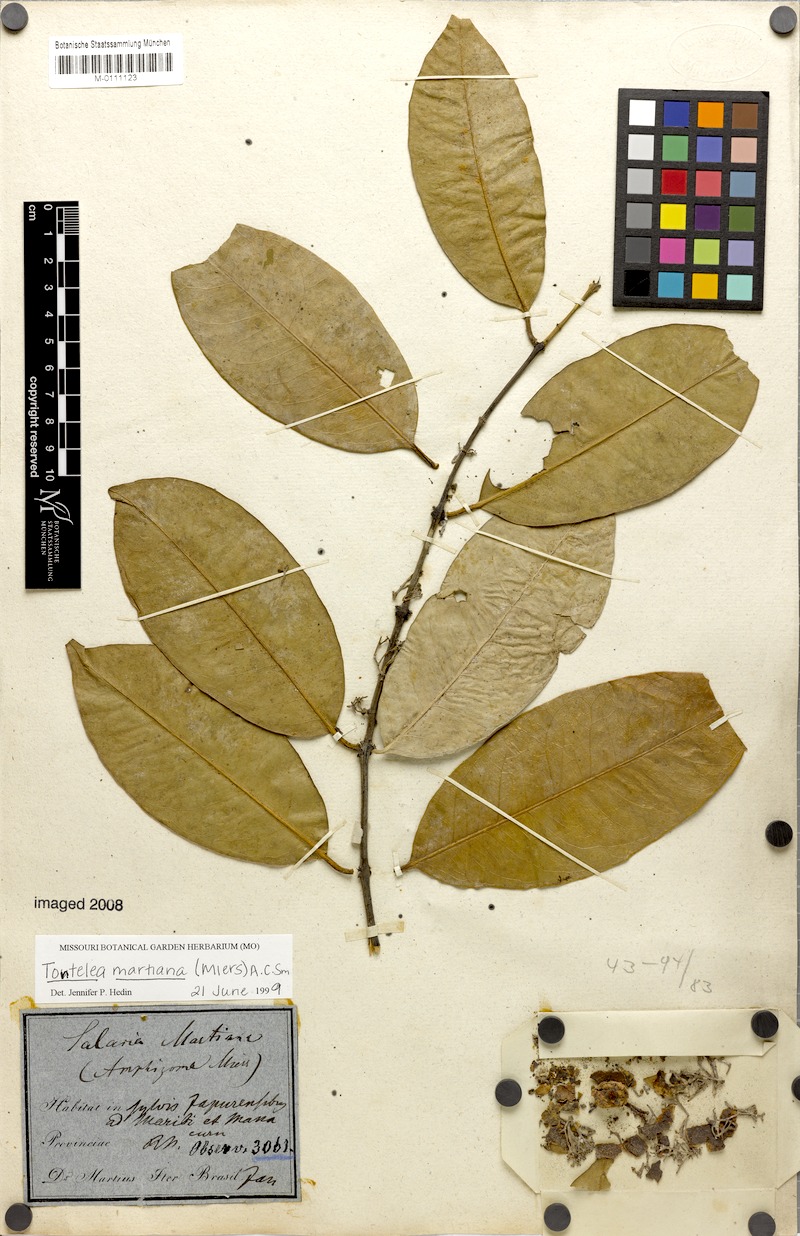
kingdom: Plantae
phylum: Tracheophyta
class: Magnoliopsida
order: Celastrales
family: Celastraceae
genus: Tontelea
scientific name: Tontelea martiana
